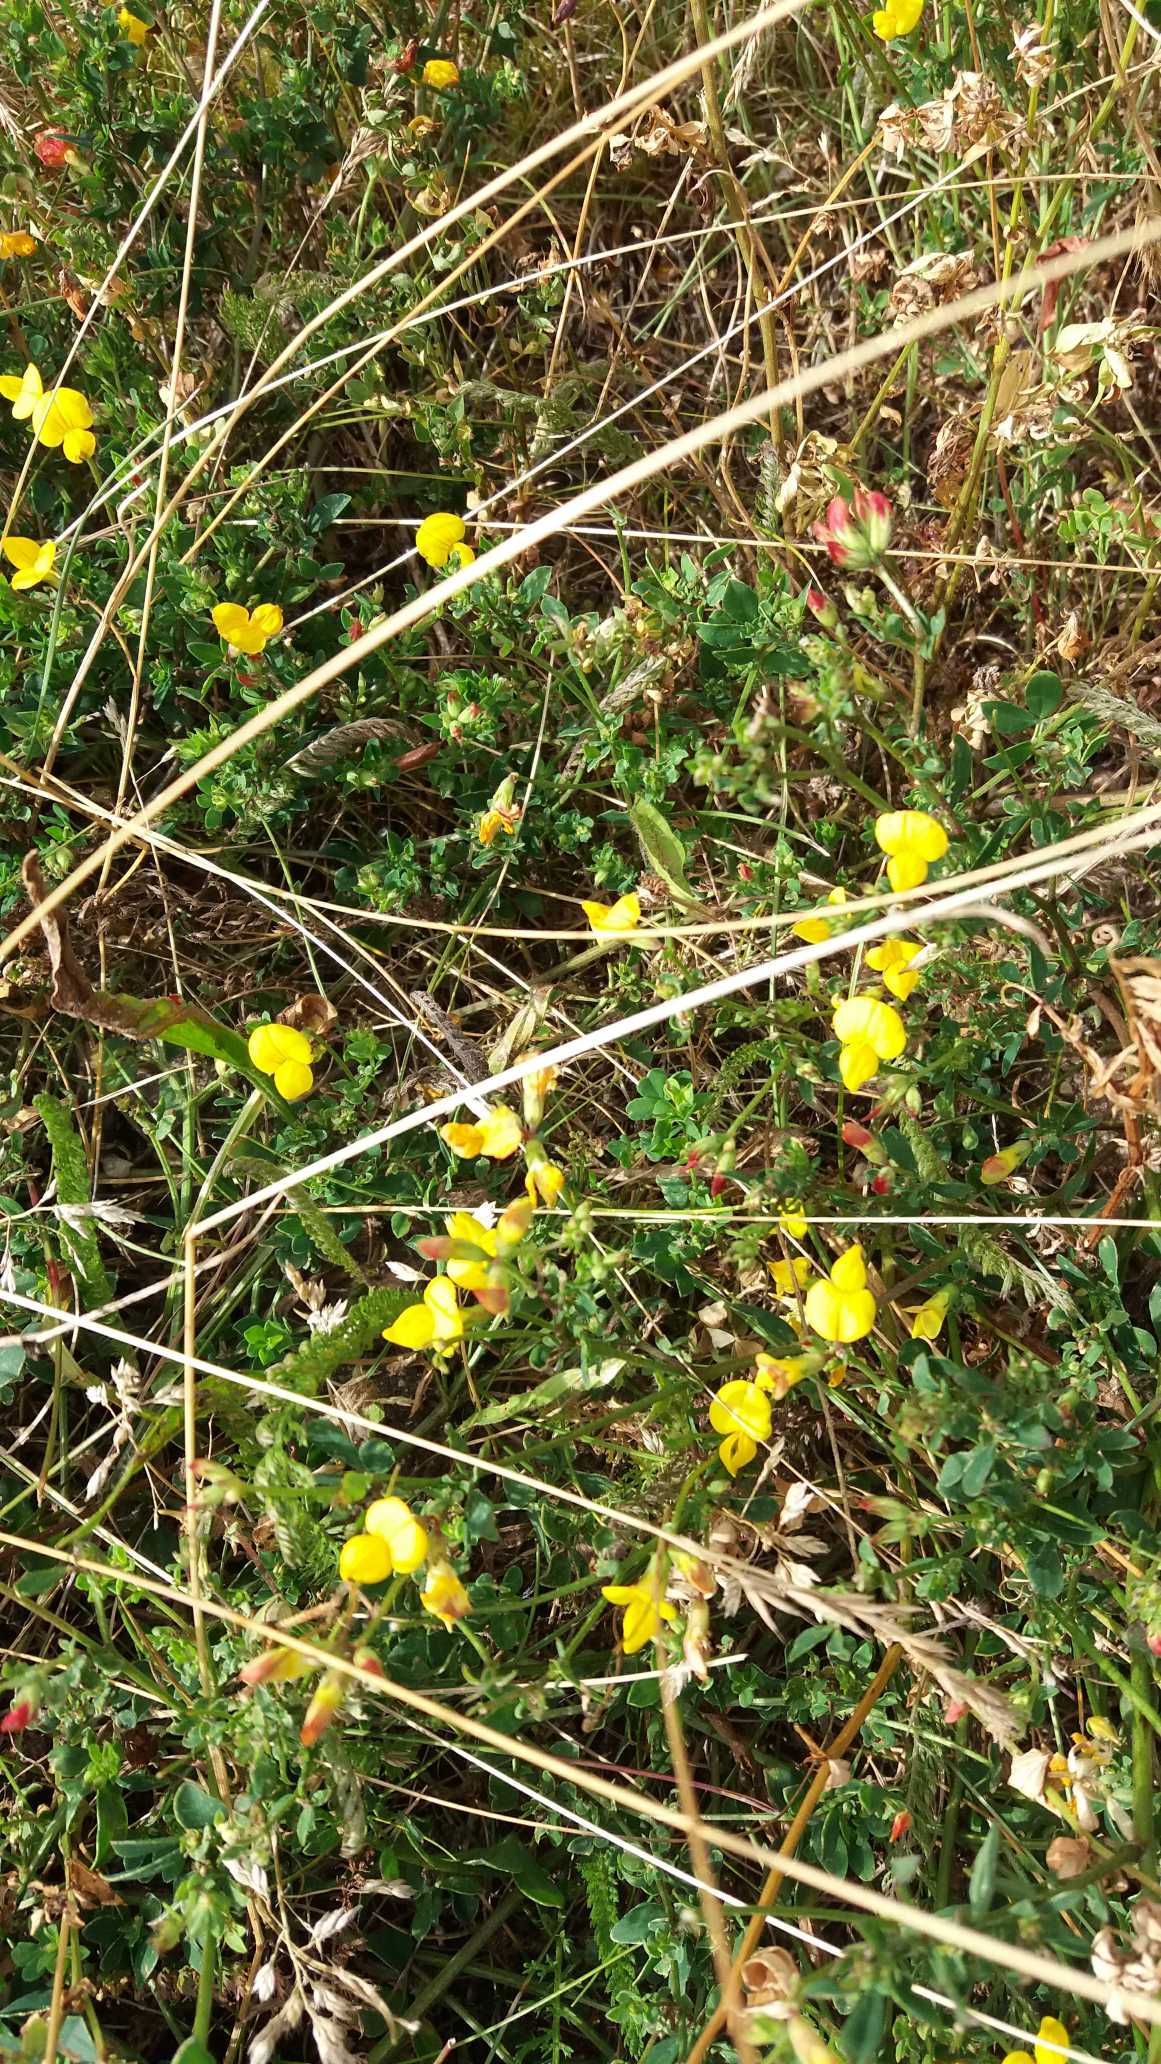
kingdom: Plantae
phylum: Tracheophyta
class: Magnoliopsida
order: Fabales
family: Fabaceae
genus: Lotus
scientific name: Lotus corniculatus
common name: Almindelig kællingetand
